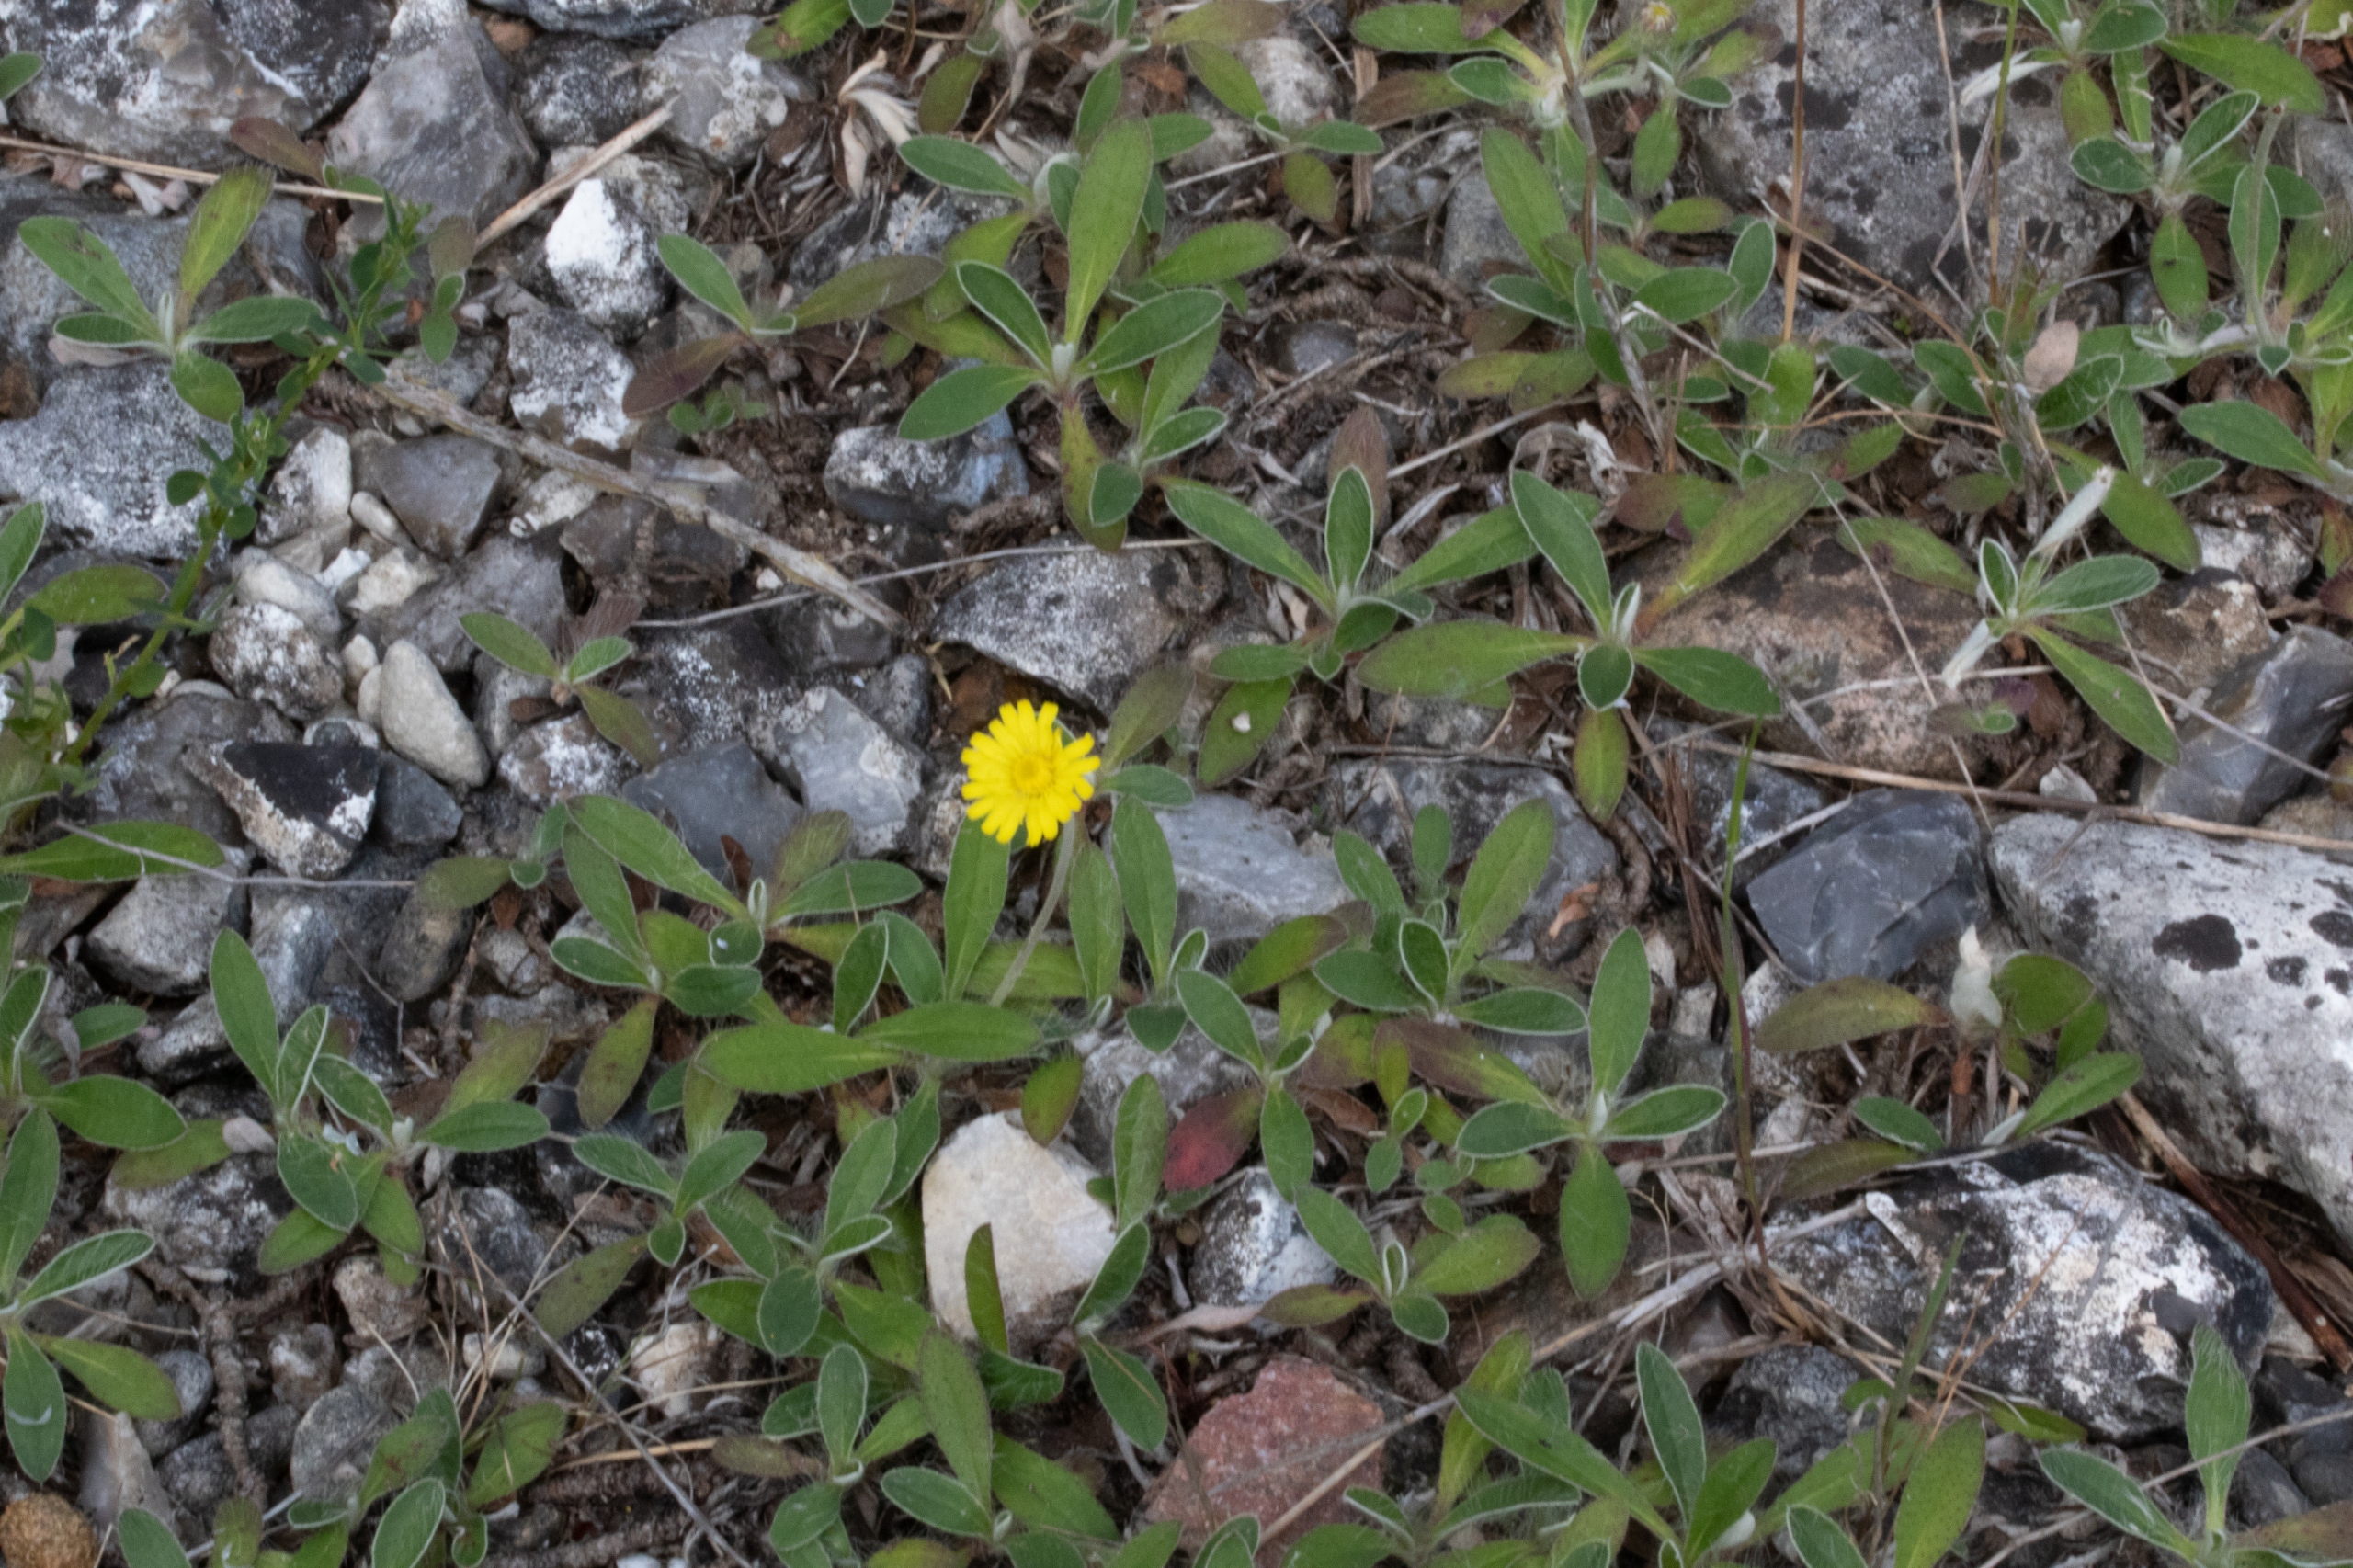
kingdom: Plantae
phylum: Tracheophyta
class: Magnoliopsida
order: Asterales
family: Asteraceae
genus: Pilosella
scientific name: Pilosella officinarum
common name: Håret høgeurt
